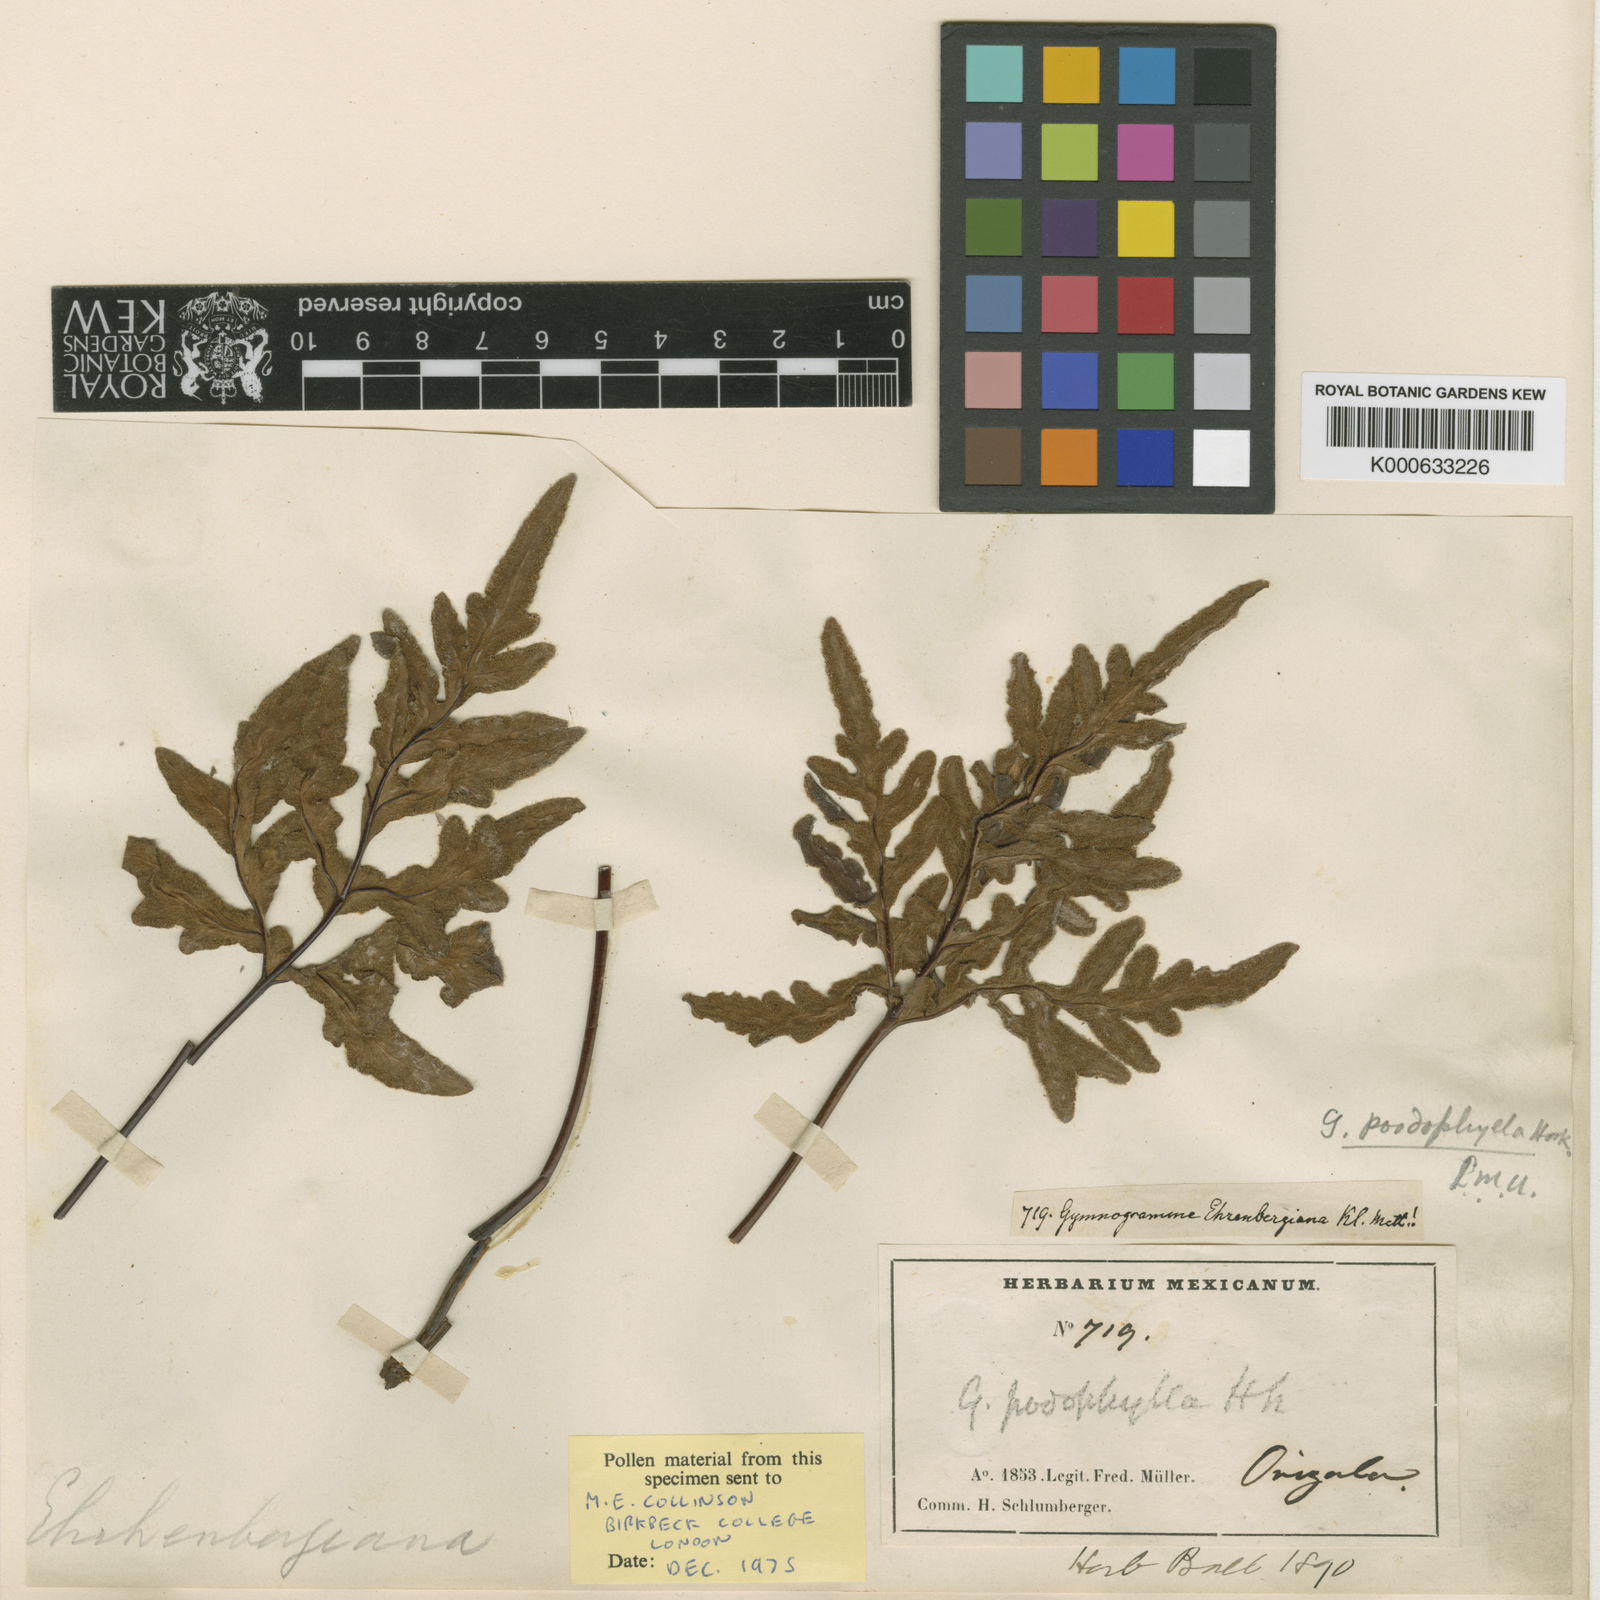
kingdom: Plantae
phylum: Tracheophyta
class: Polypodiopsida
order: Polypodiales
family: Pteridaceae
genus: Bommeria
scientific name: Bommeria ehrenbergiana
